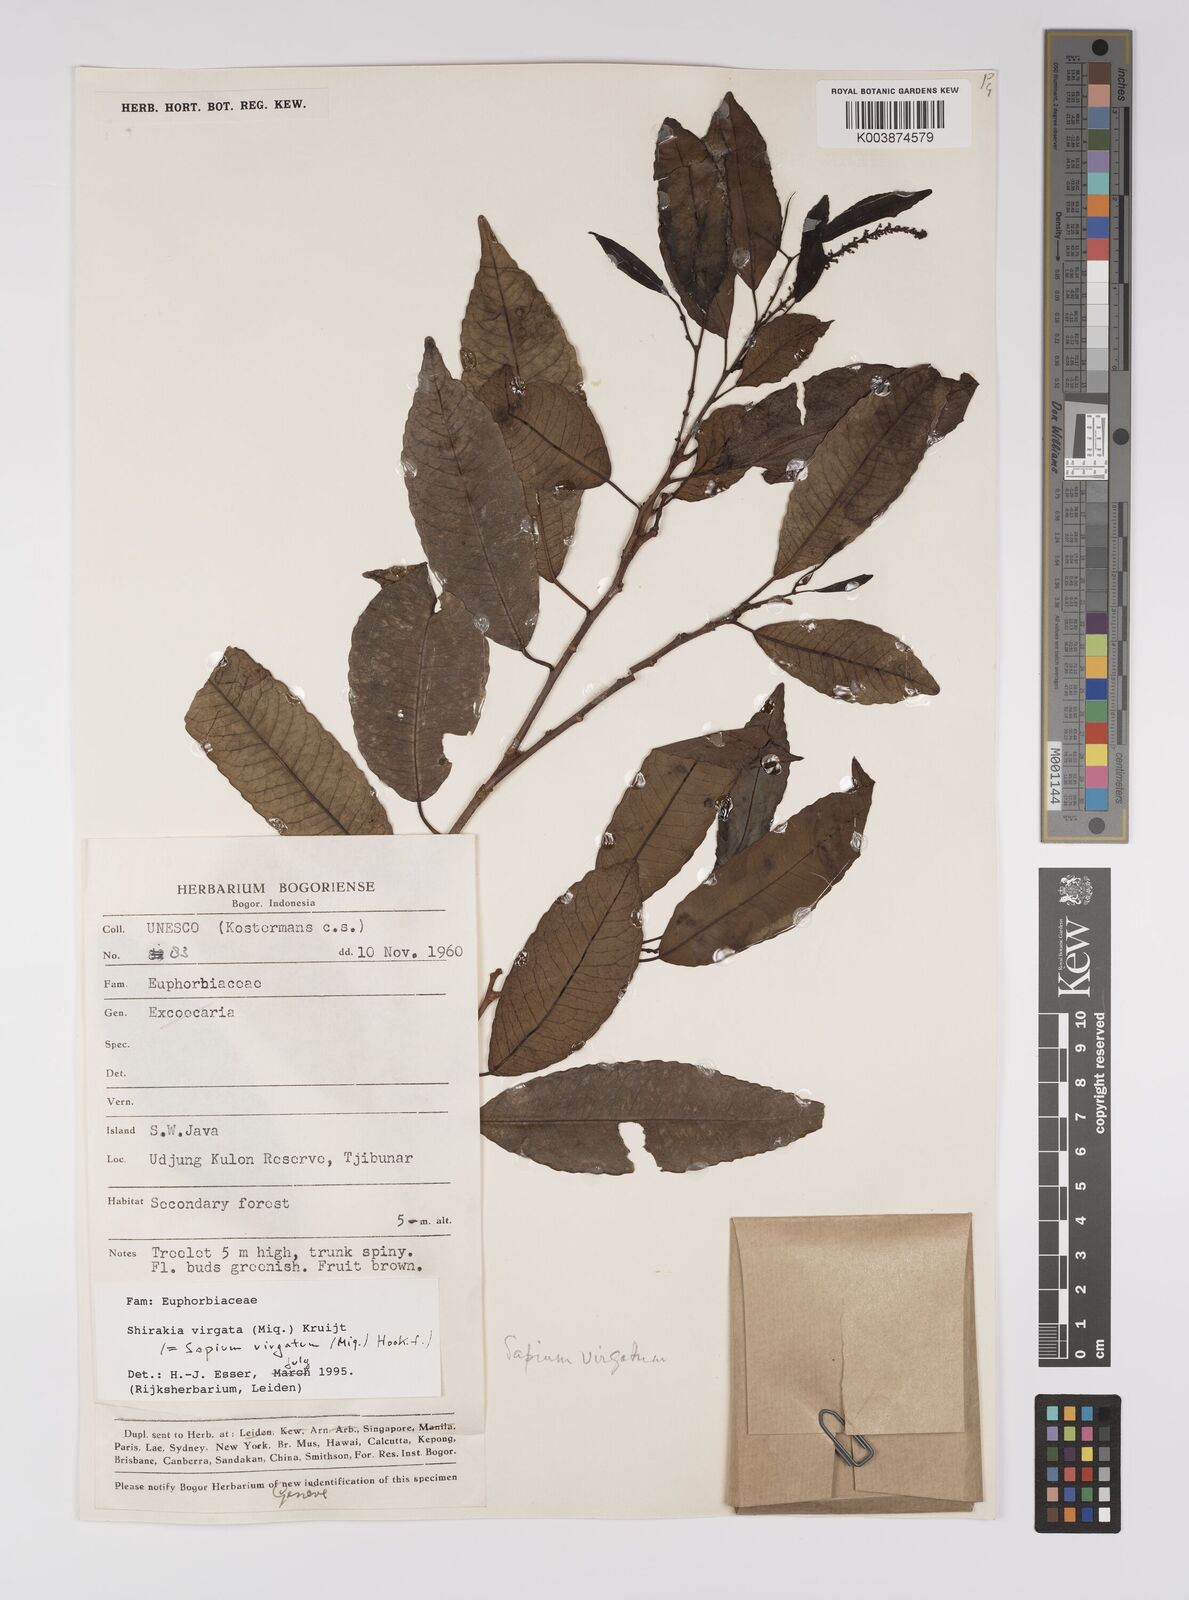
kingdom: Plantae
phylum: Tracheophyta
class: Magnoliopsida
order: Malpighiales
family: Euphorbiaceae
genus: Shirakiopsis
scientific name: Shirakiopsis virgata
